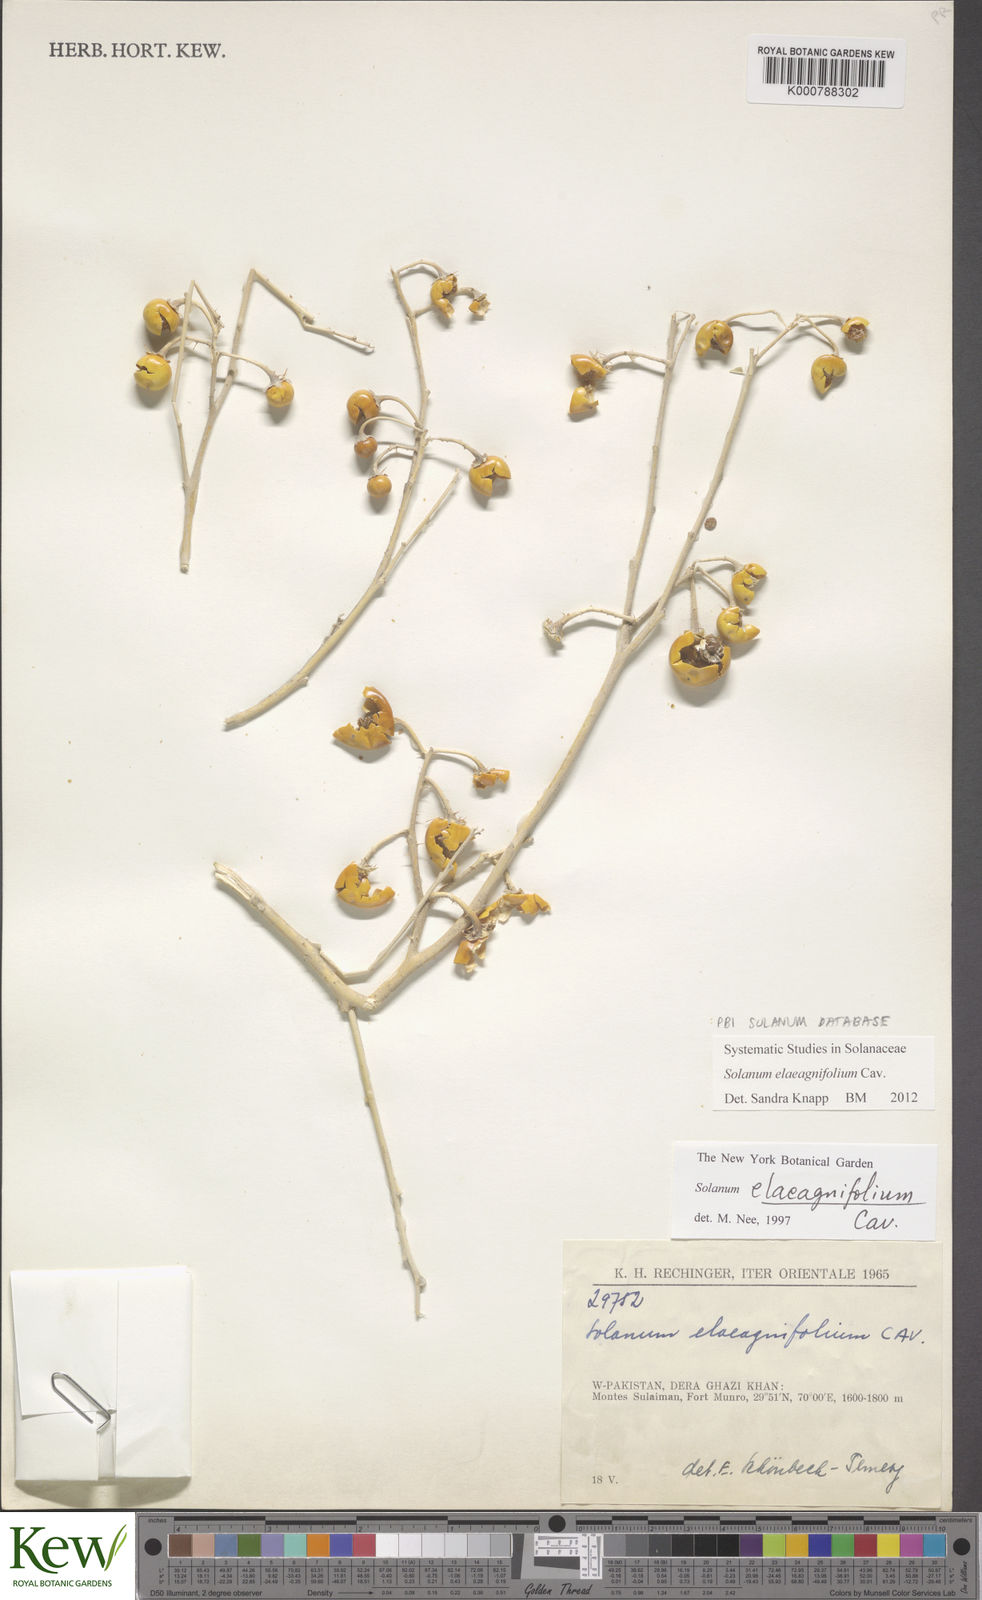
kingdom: Plantae
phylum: Tracheophyta
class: Magnoliopsida
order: Solanales
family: Solanaceae
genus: Solanum
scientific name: Solanum elaeagnifolium
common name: Silverleaf nightshade
